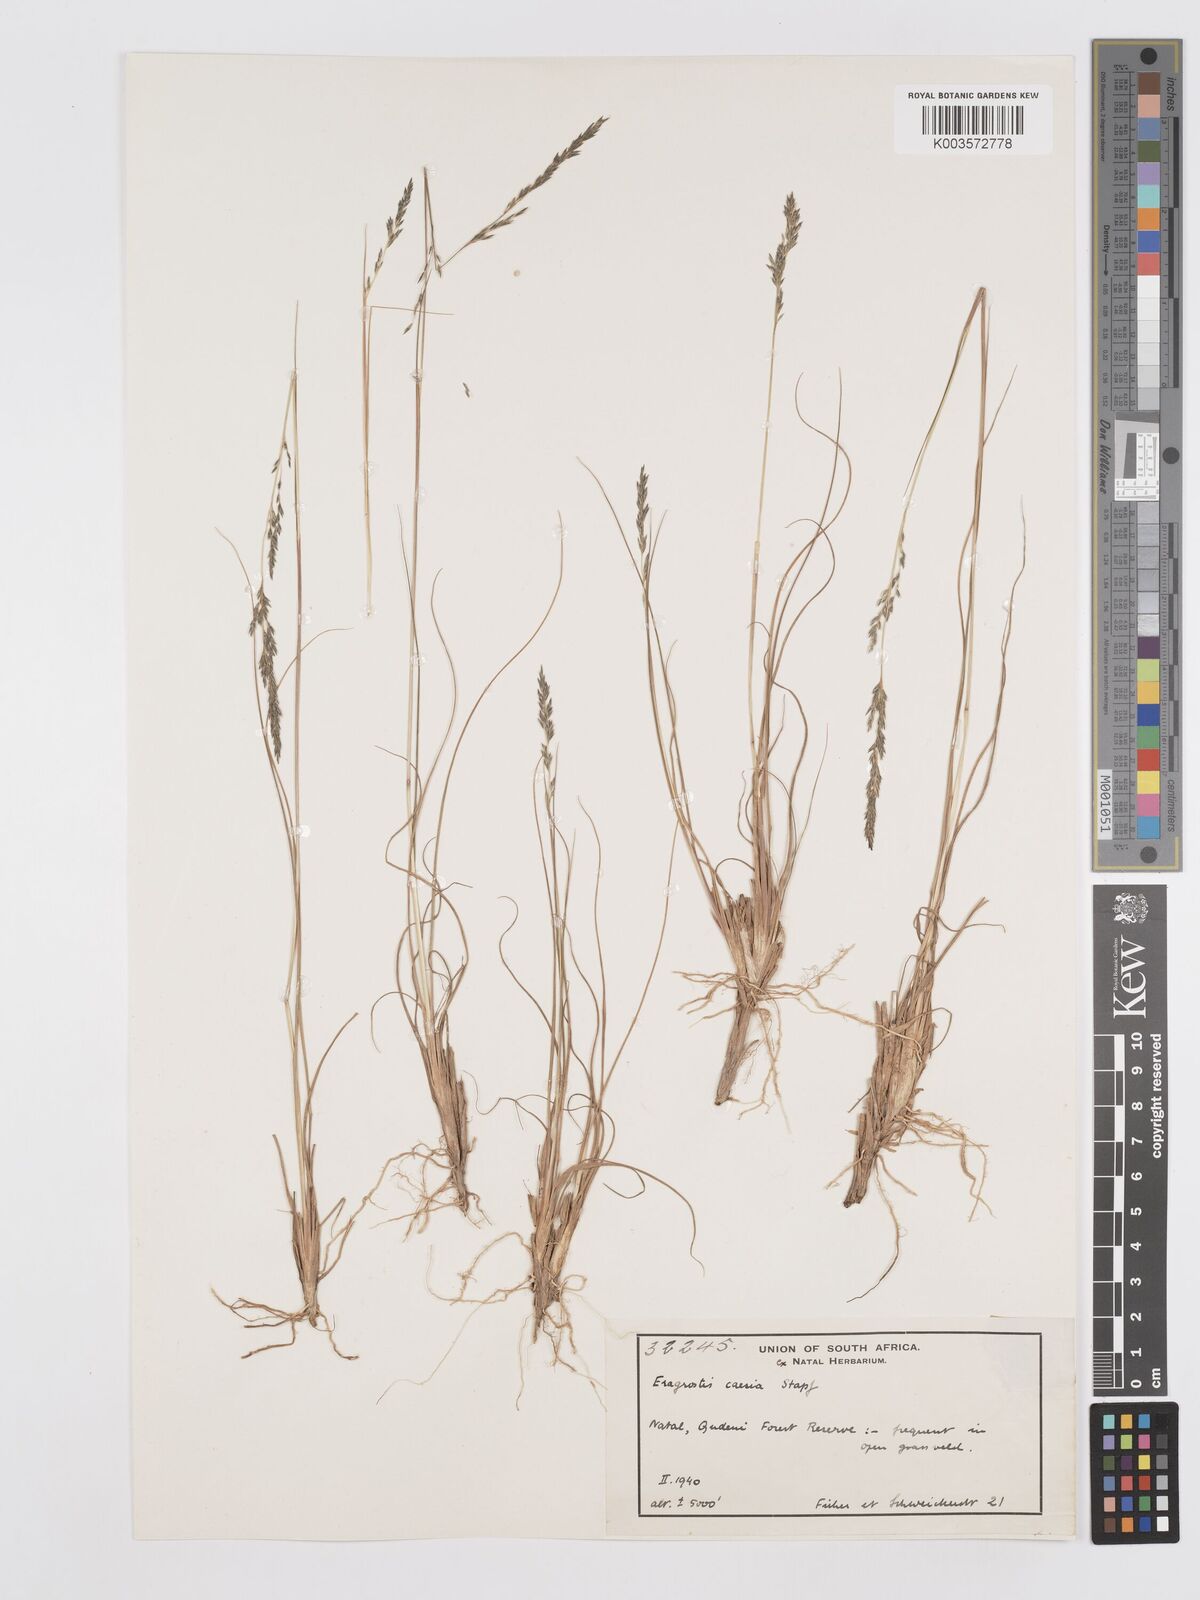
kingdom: Plantae
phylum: Tracheophyta
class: Liliopsida
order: Poales
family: Poaceae
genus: Eragrostis
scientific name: Eragrostis caesia
